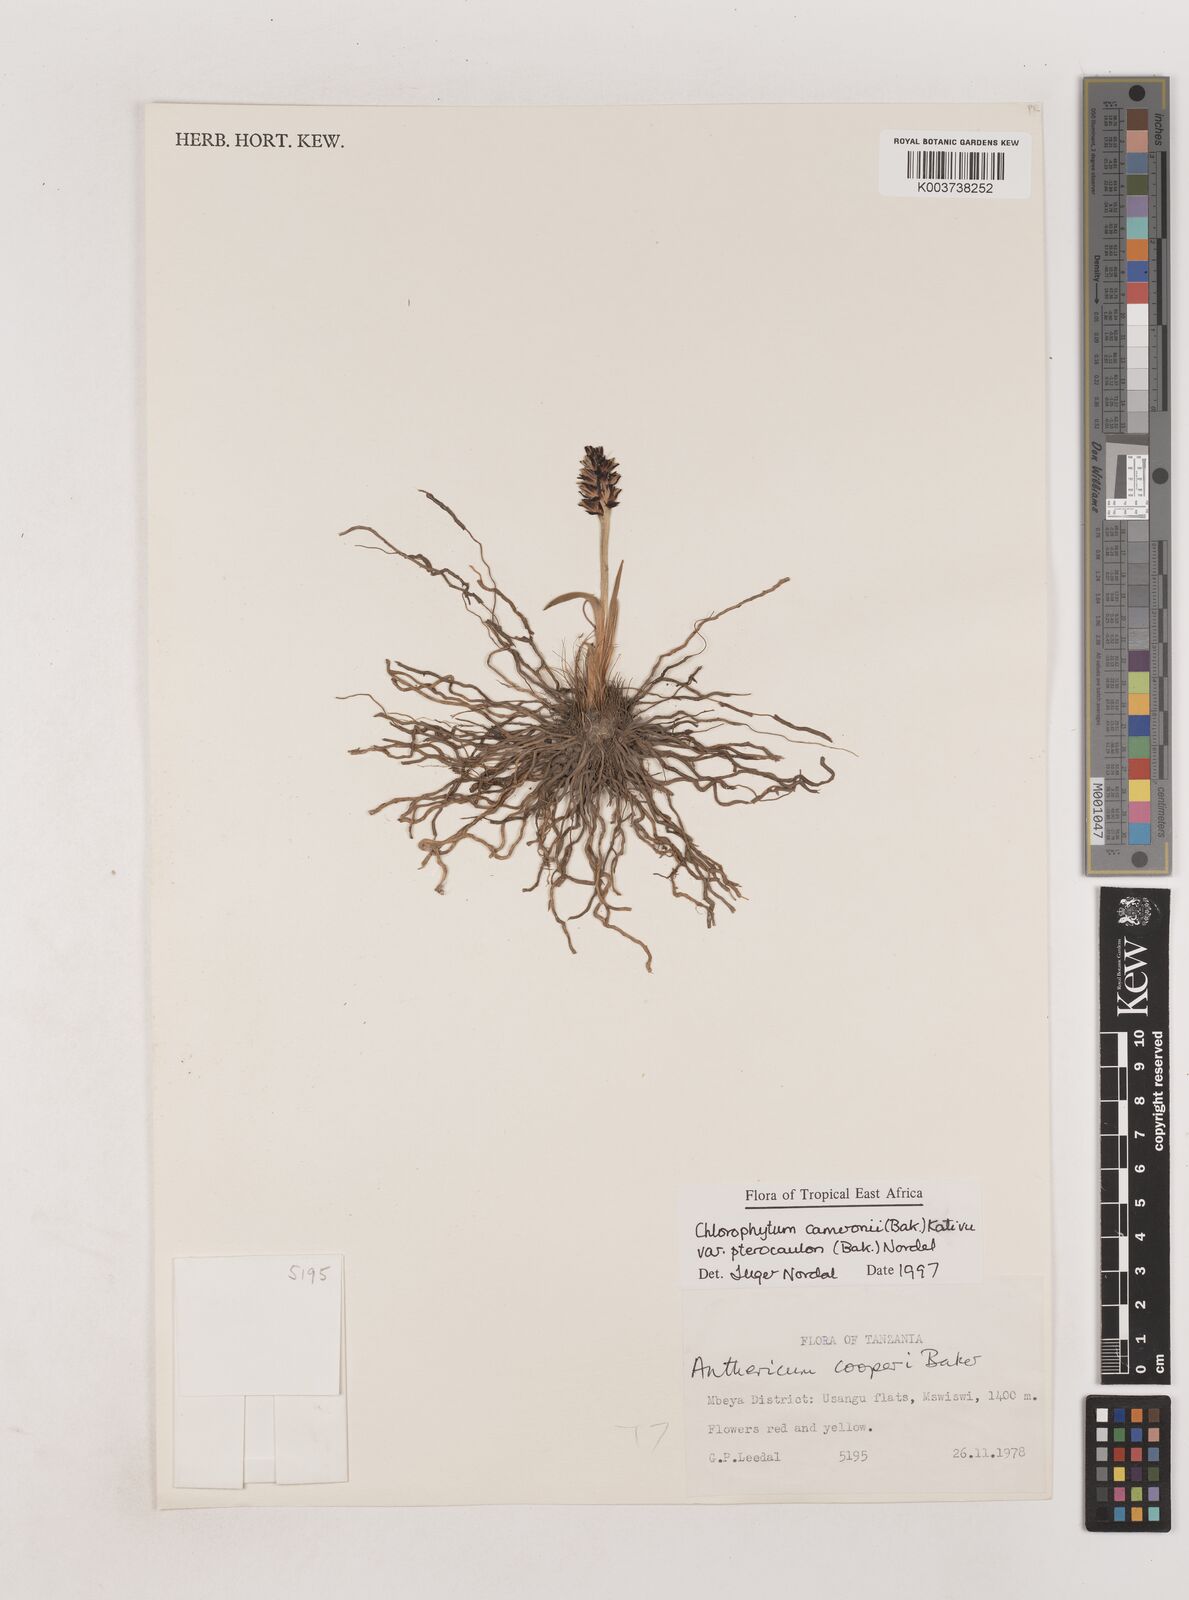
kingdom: Plantae
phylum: Tracheophyta
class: Liliopsida
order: Asparagales
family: Asparagaceae
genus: Chlorophytum
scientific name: Chlorophytum cameronii
